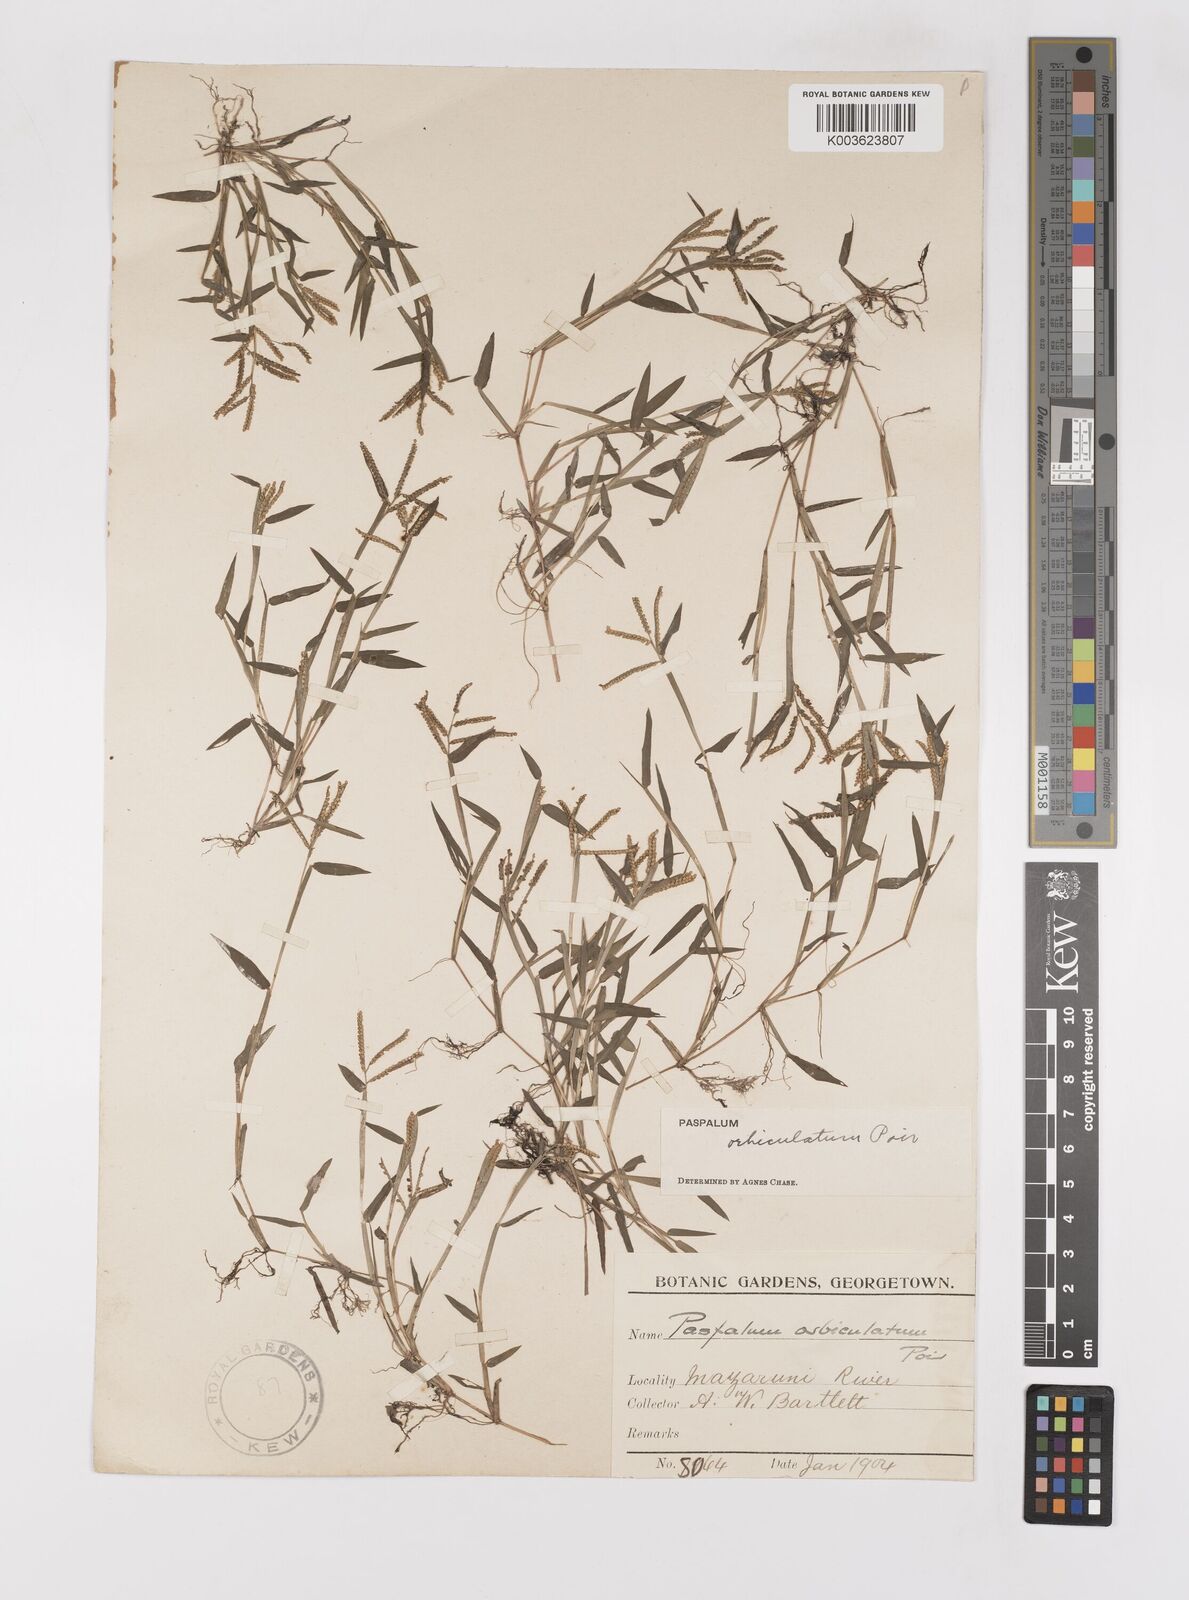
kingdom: Plantae
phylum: Tracheophyta
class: Liliopsida
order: Poales
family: Poaceae
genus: Paspalum
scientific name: Paspalum orbiculatum
